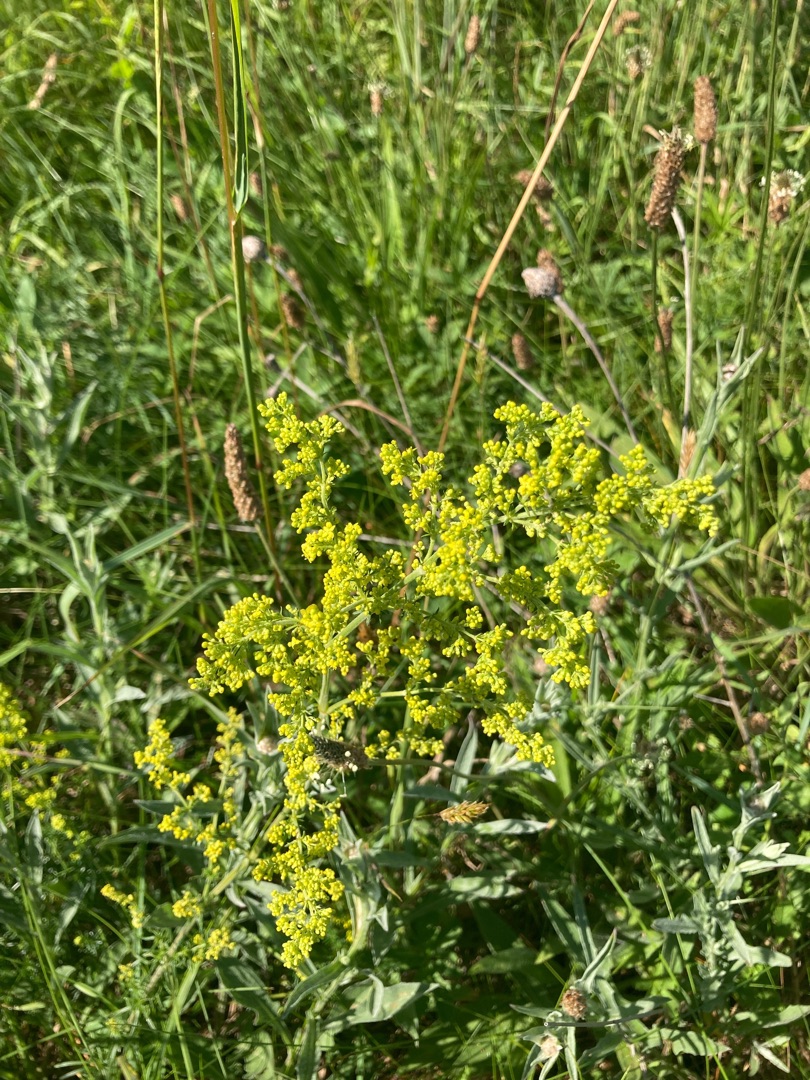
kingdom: Plantae
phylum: Tracheophyta
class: Magnoliopsida
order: Gentianales
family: Rubiaceae
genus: Galium
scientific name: Galium verum
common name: Gul snerre
